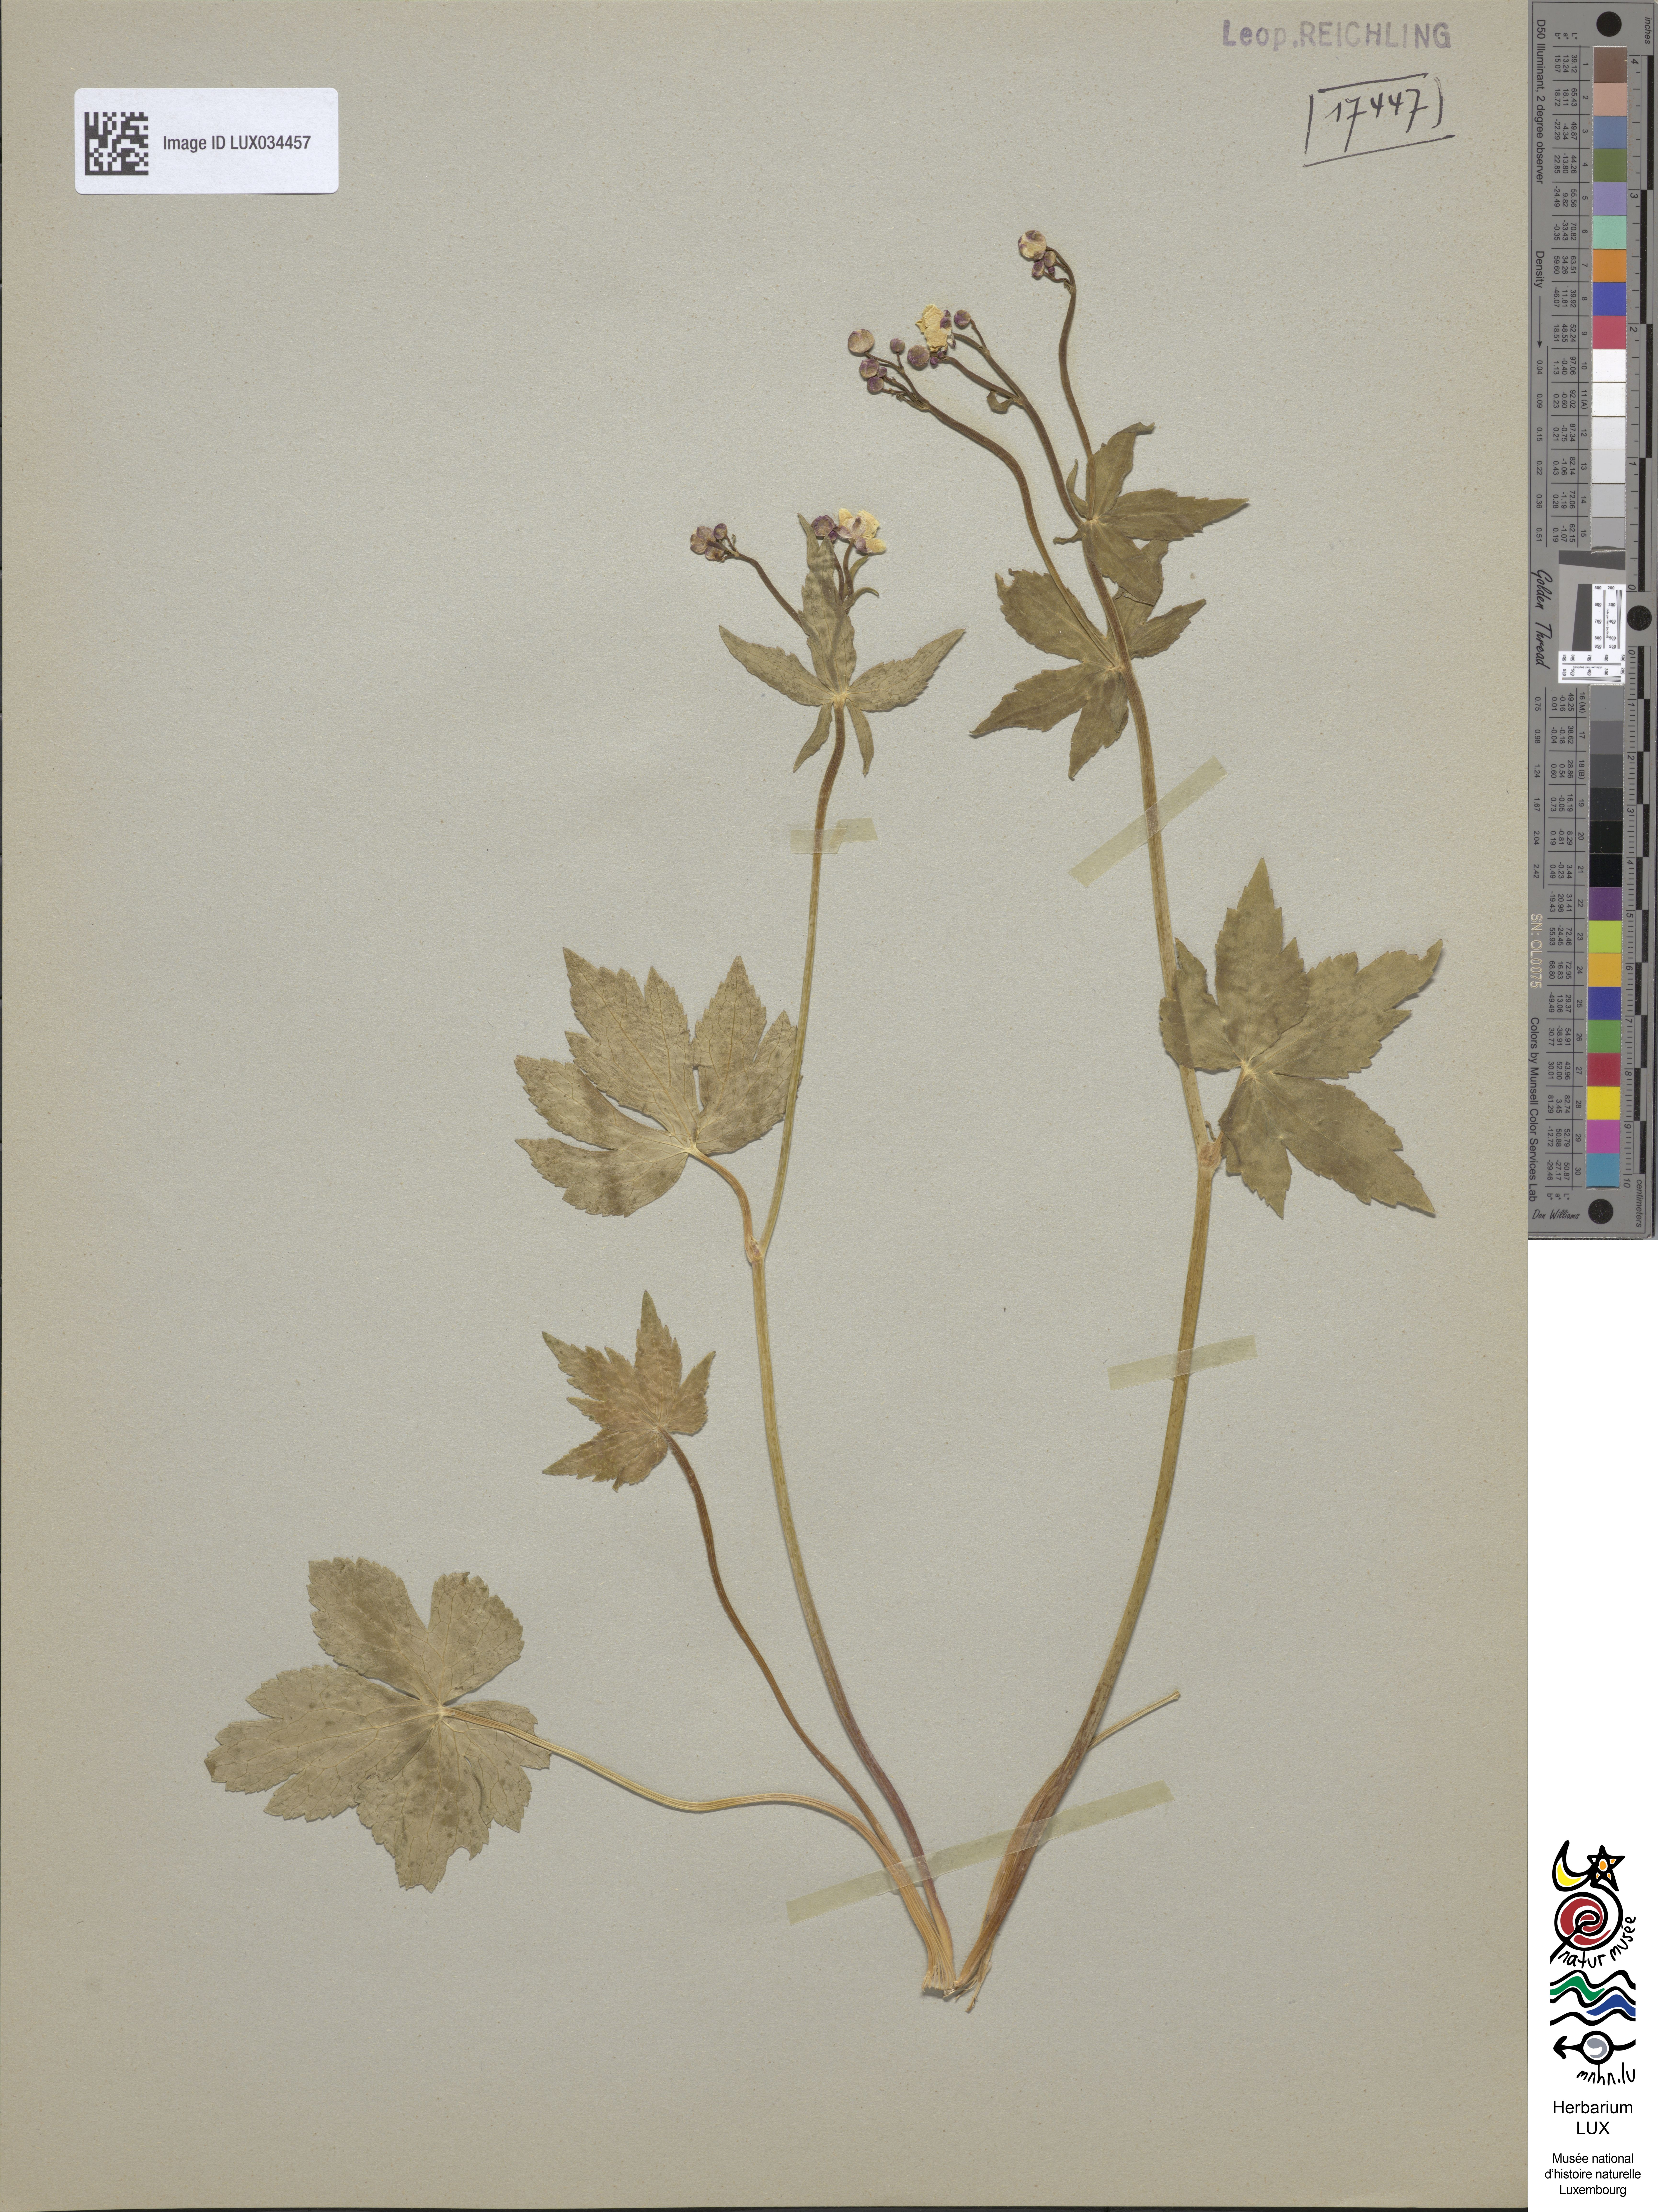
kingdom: Plantae
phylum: Tracheophyta
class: Magnoliopsida
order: Ranunculales
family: Ranunculaceae
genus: Ranunculus
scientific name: Ranunculus aconitifolius
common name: Aconite-leaved buttercup
